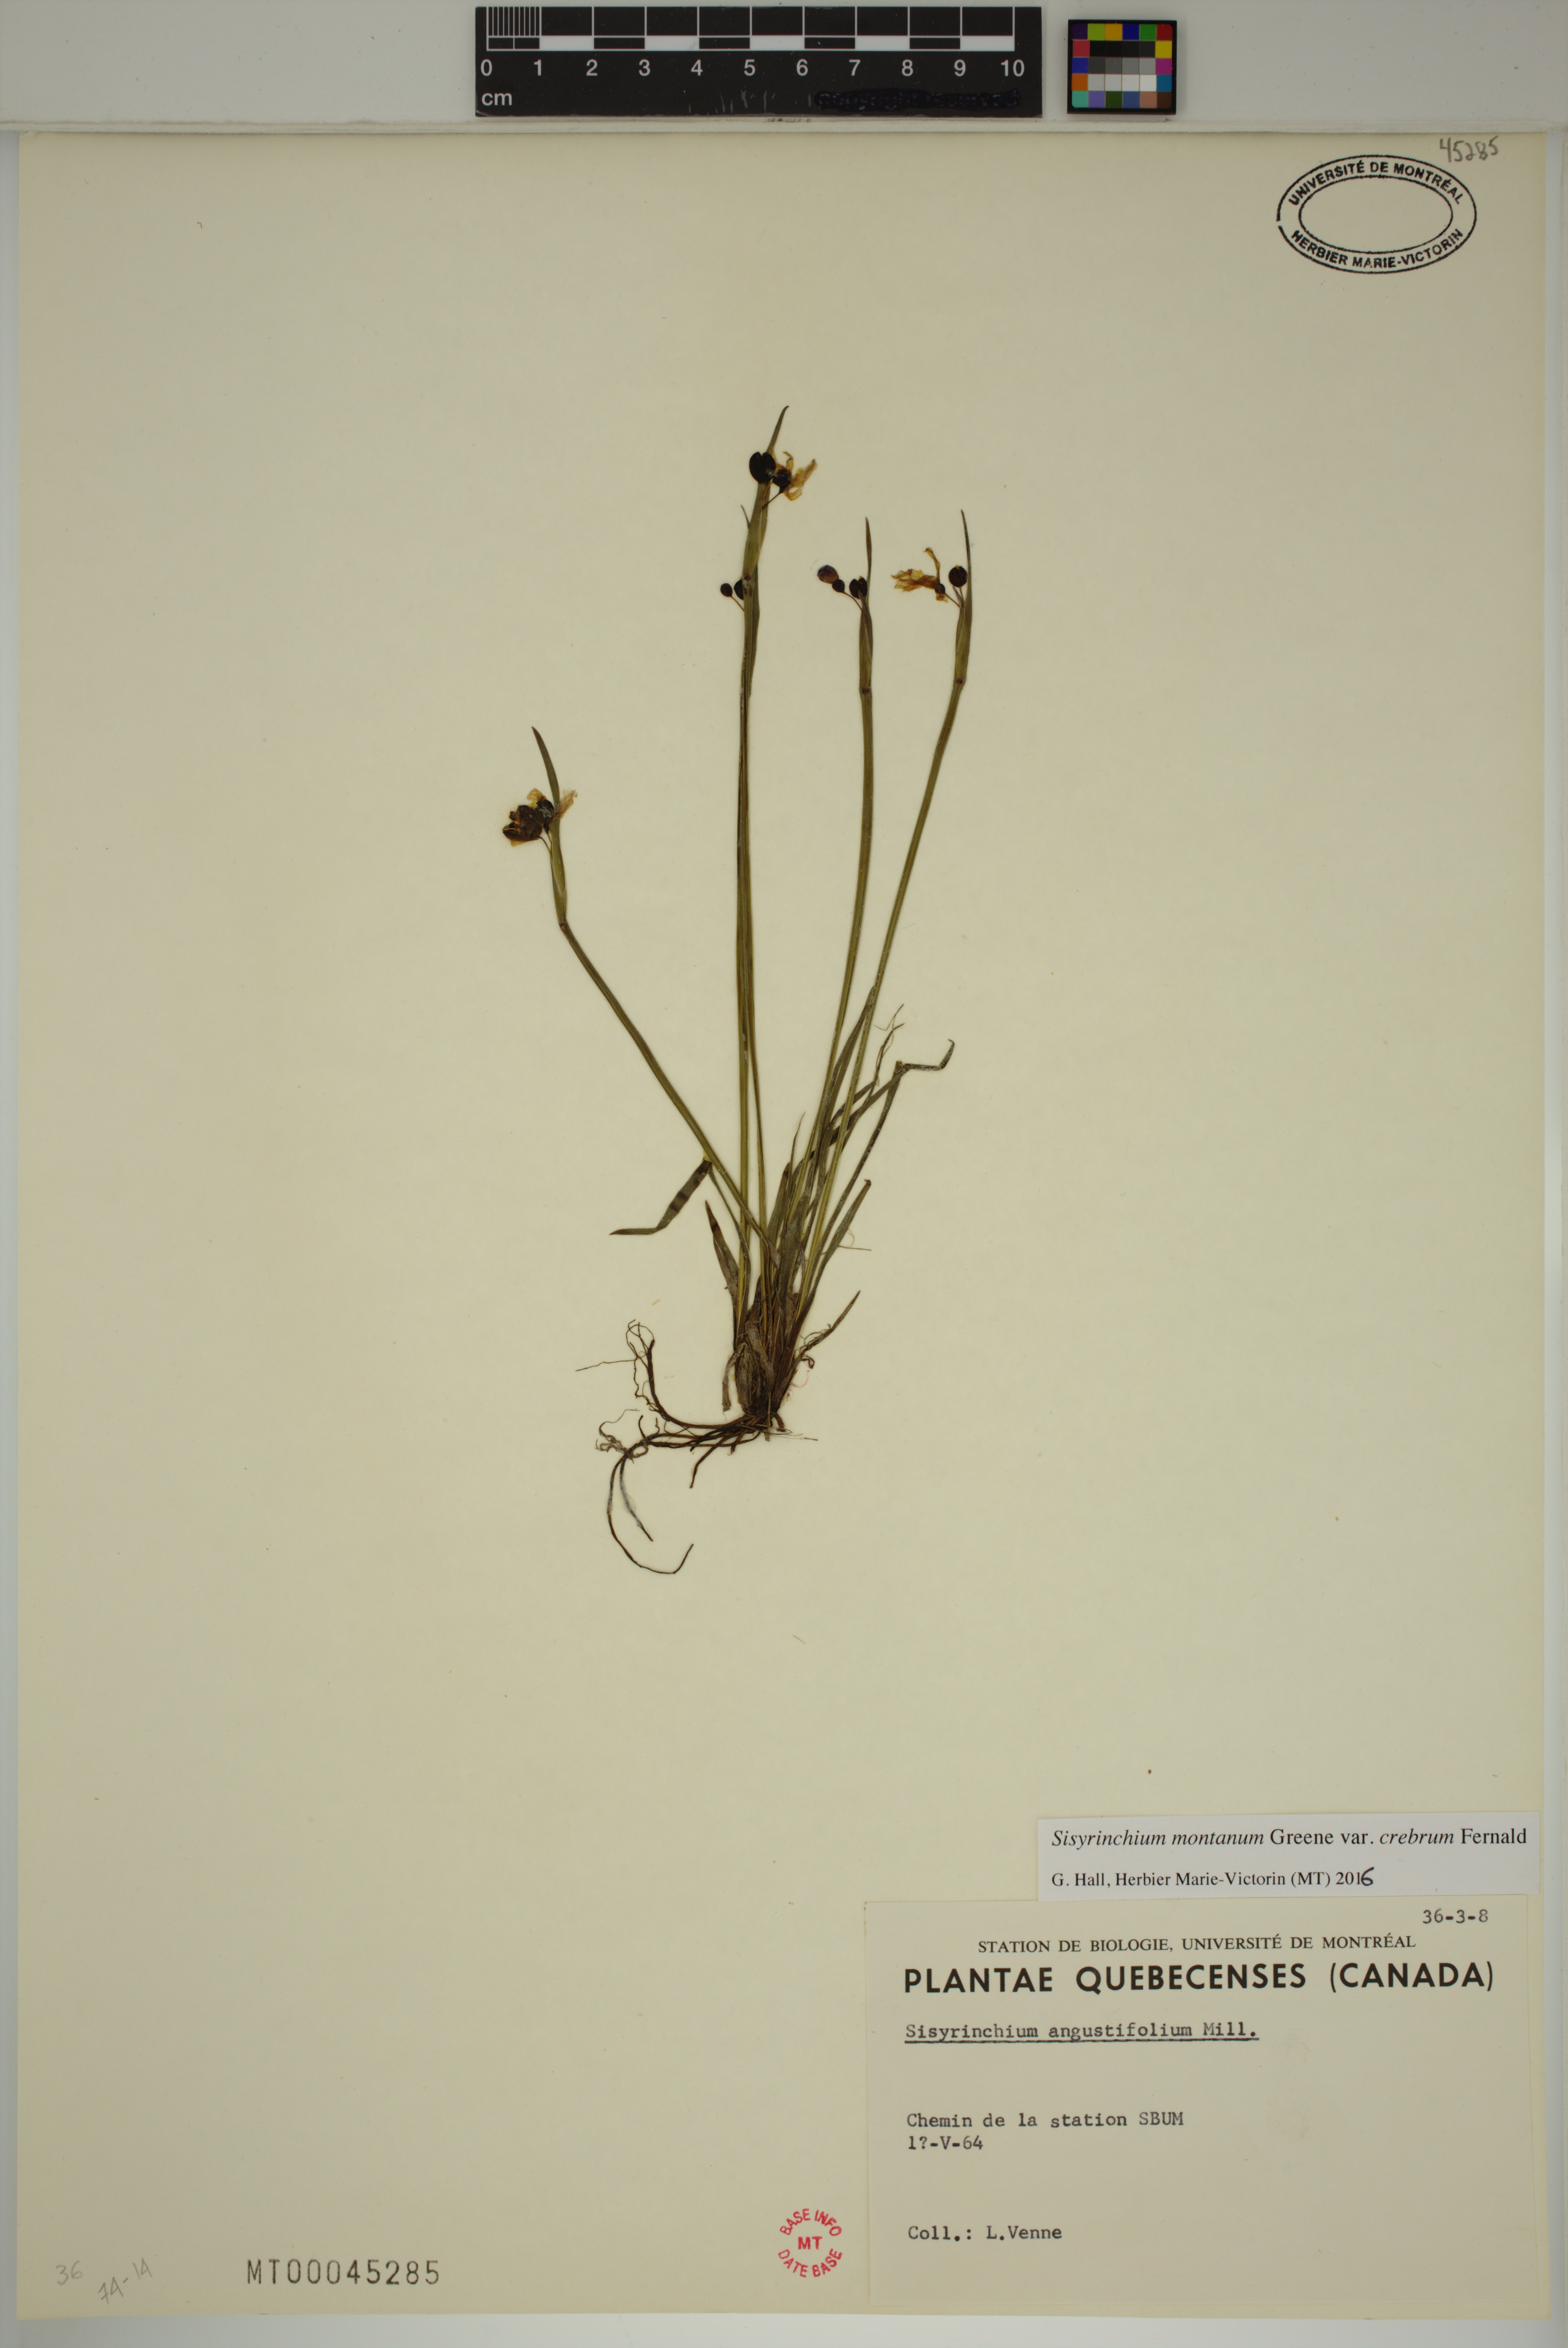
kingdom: Plantae
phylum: Tracheophyta
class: Liliopsida
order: Asparagales
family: Iridaceae
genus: Sisyrinchium
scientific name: Sisyrinchium montanum
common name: American blue-eyed-grass
